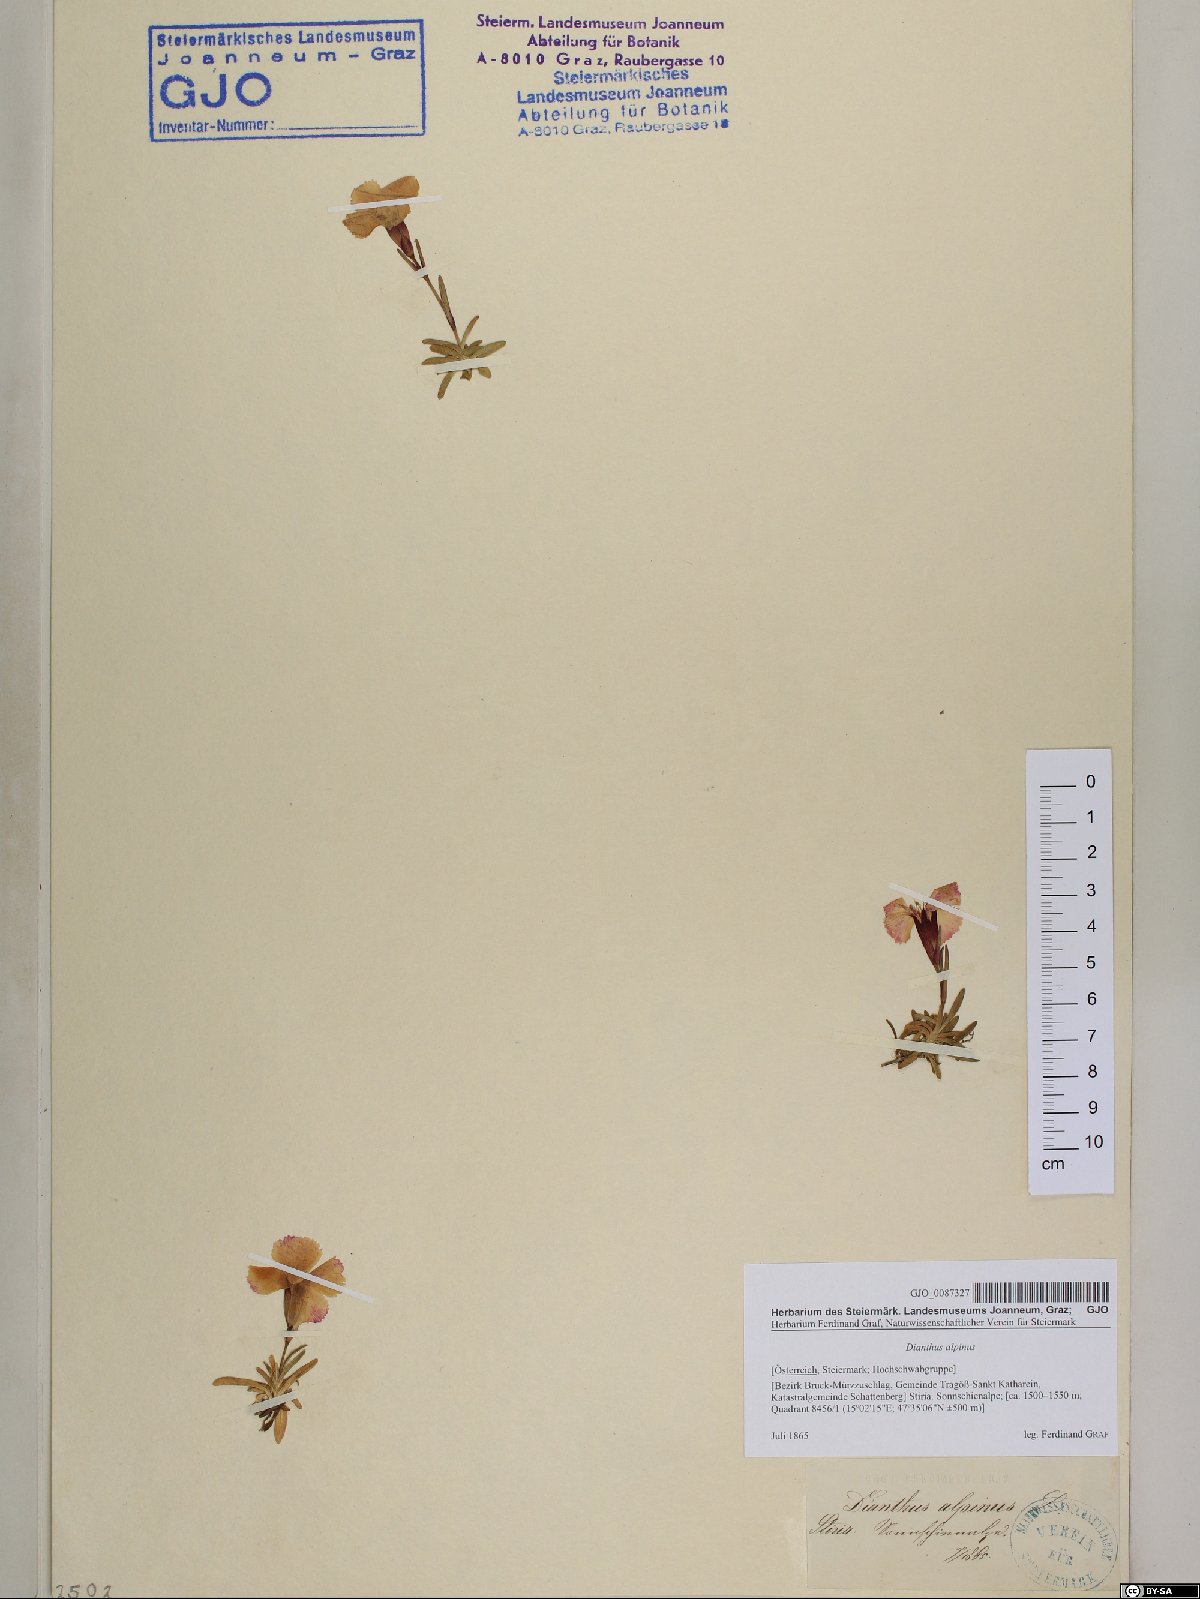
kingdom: Plantae
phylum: Tracheophyta
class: Magnoliopsida
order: Caryophyllales
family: Caryophyllaceae
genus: Dianthus
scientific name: Dianthus alpinus
